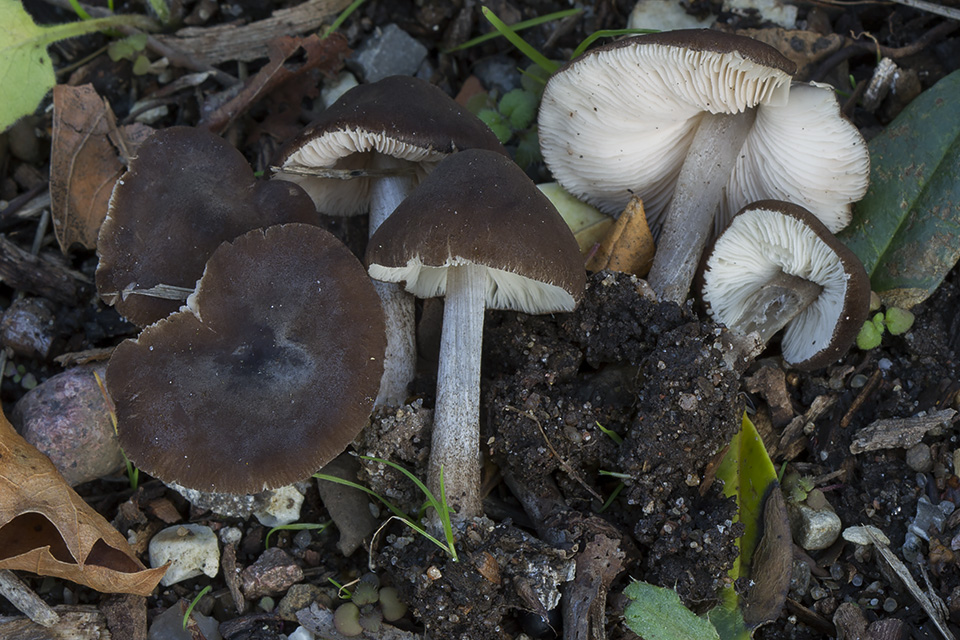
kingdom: Fungi
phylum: Basidiomycota
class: Agaricomycetes
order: Agaricales
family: Pluteaceae
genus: Pluteus
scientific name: Pluteus inflatus
